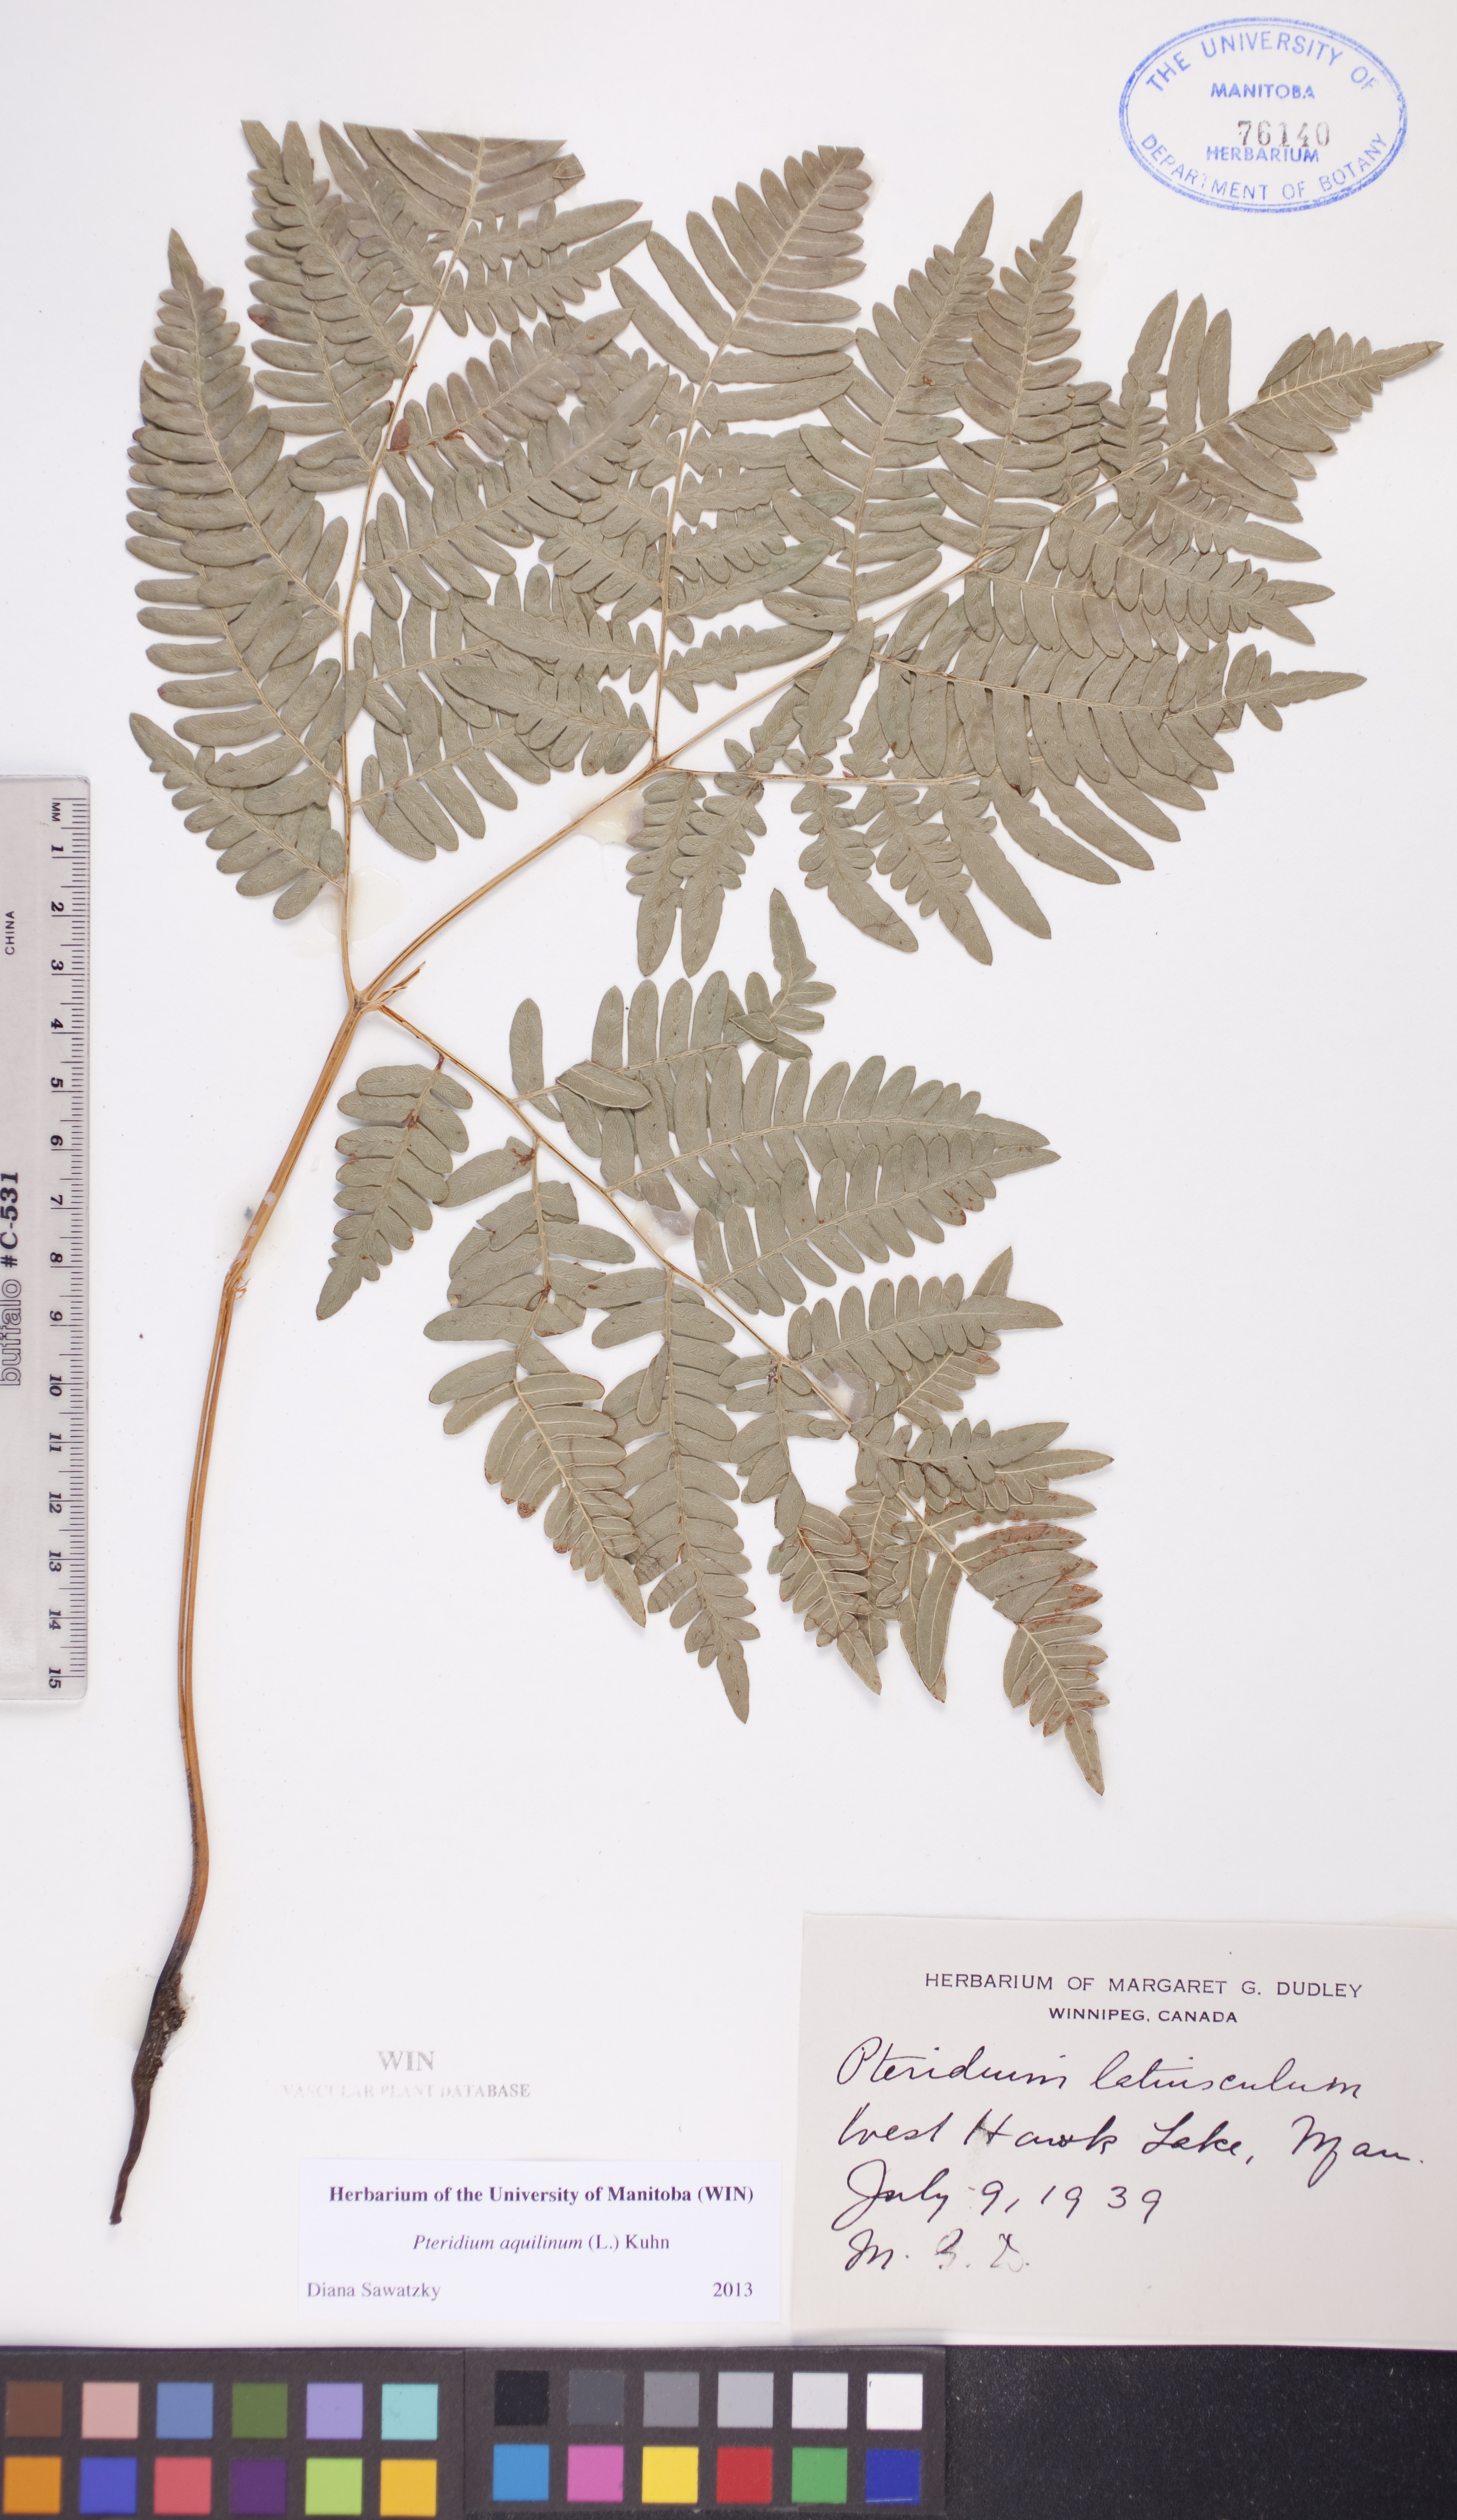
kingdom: Plantae
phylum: Tracheophyta
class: Polypodiopsida
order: Polypodiales
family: Dennstaedtiaceae
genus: Pteridium
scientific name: Pteridium aquilinum
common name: Bracken
